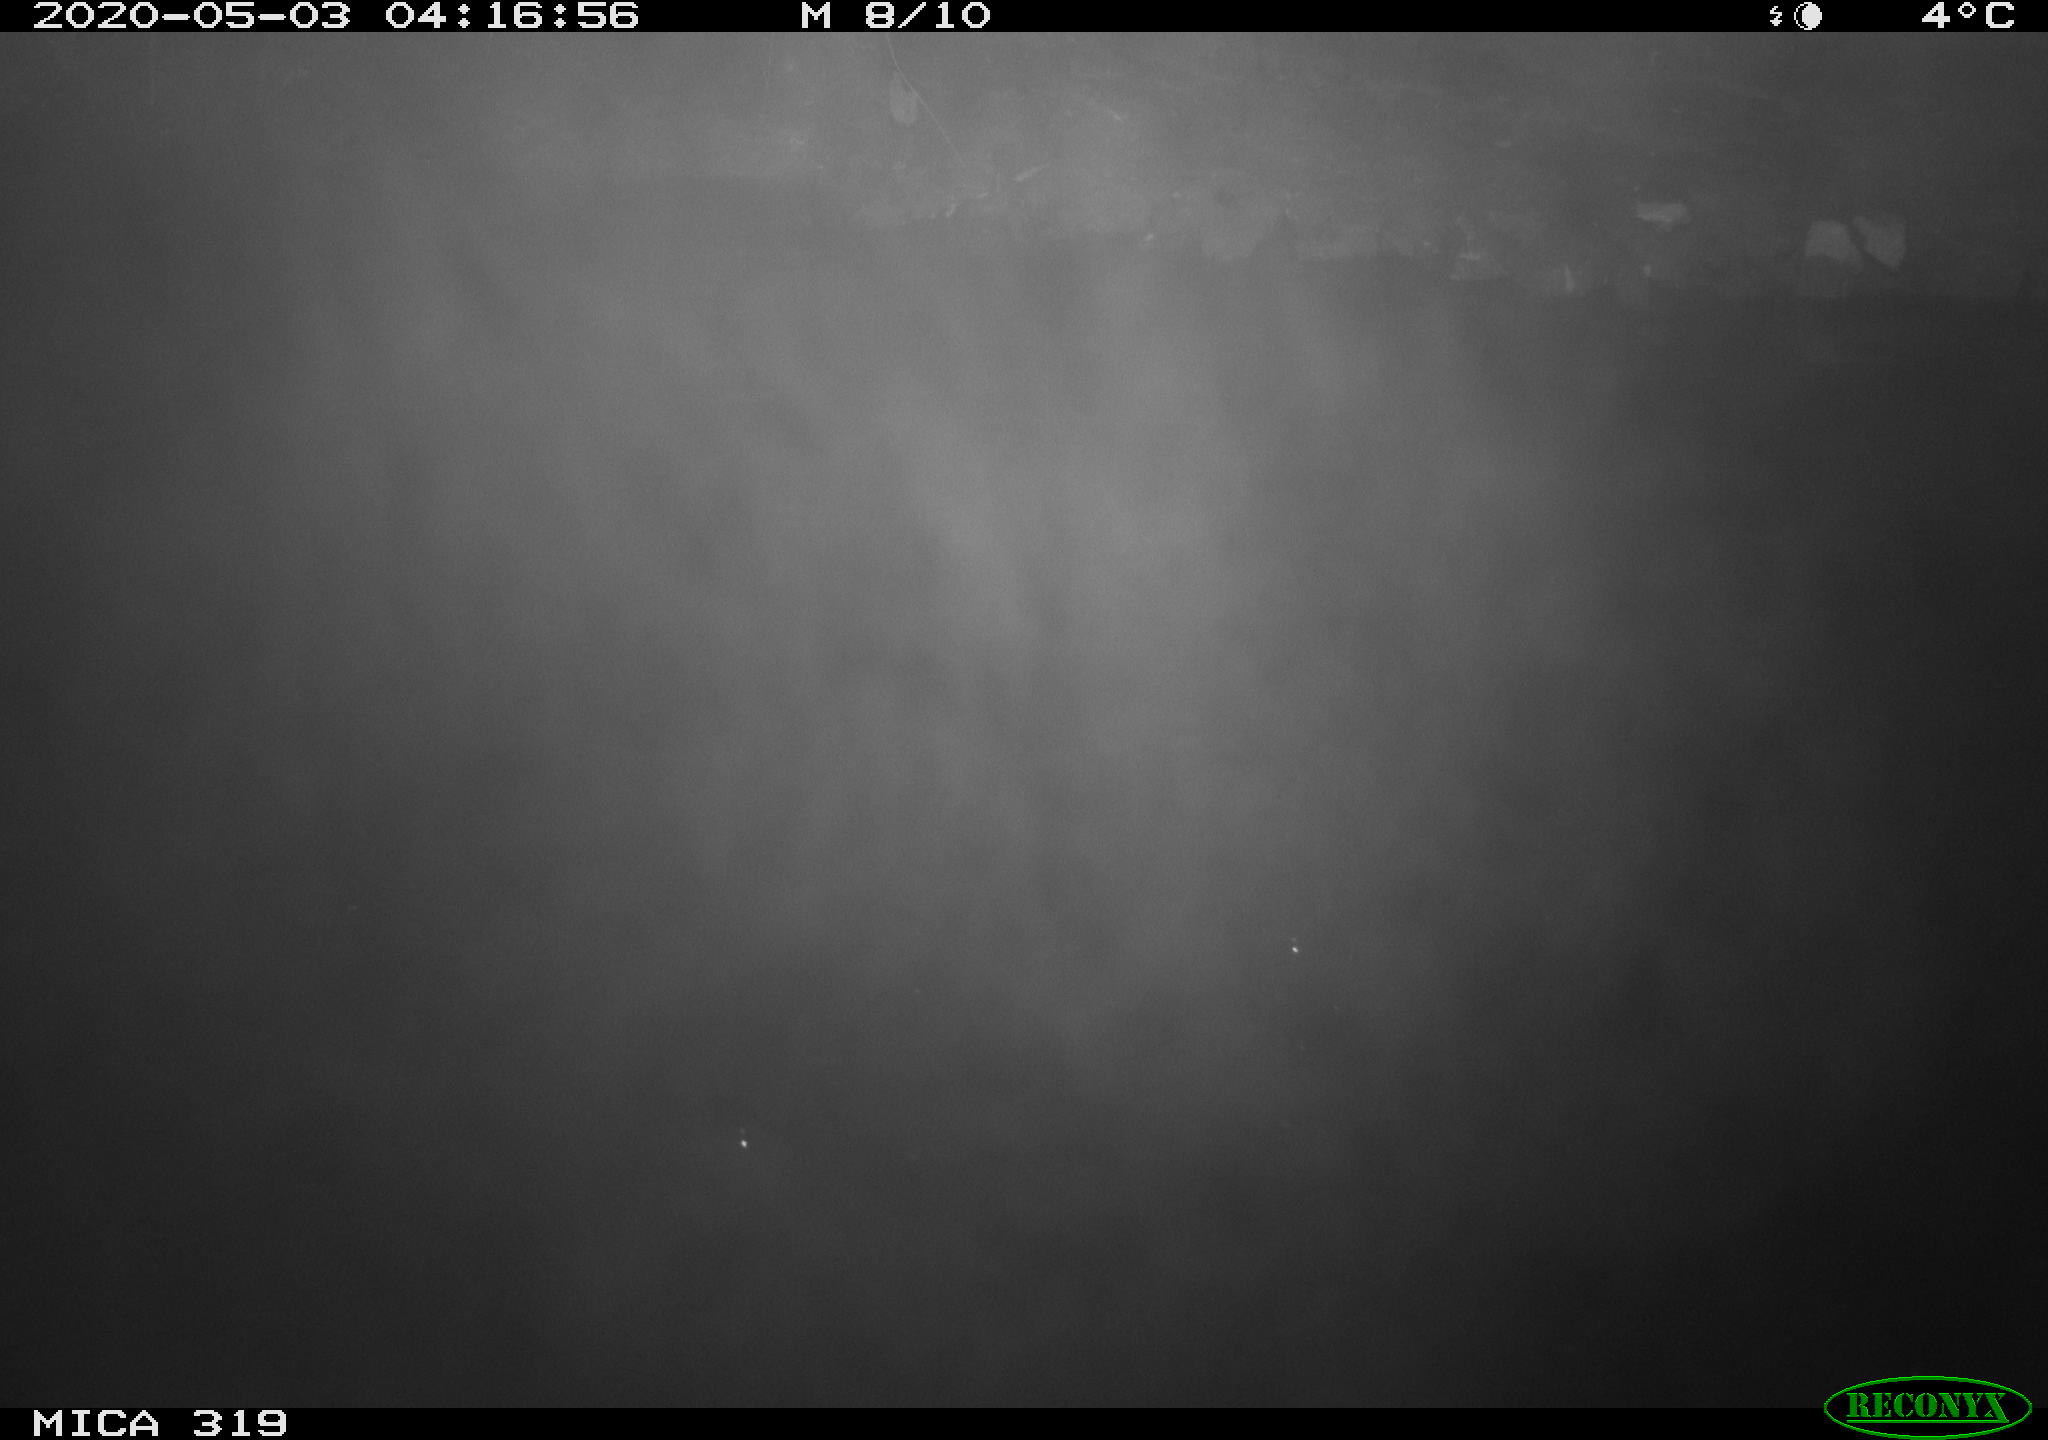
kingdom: Animalia
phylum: Chordata
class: Aves
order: Anseriformes
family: Anatidae
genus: Anas
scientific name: Anas platyrhynchos
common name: Mallard
